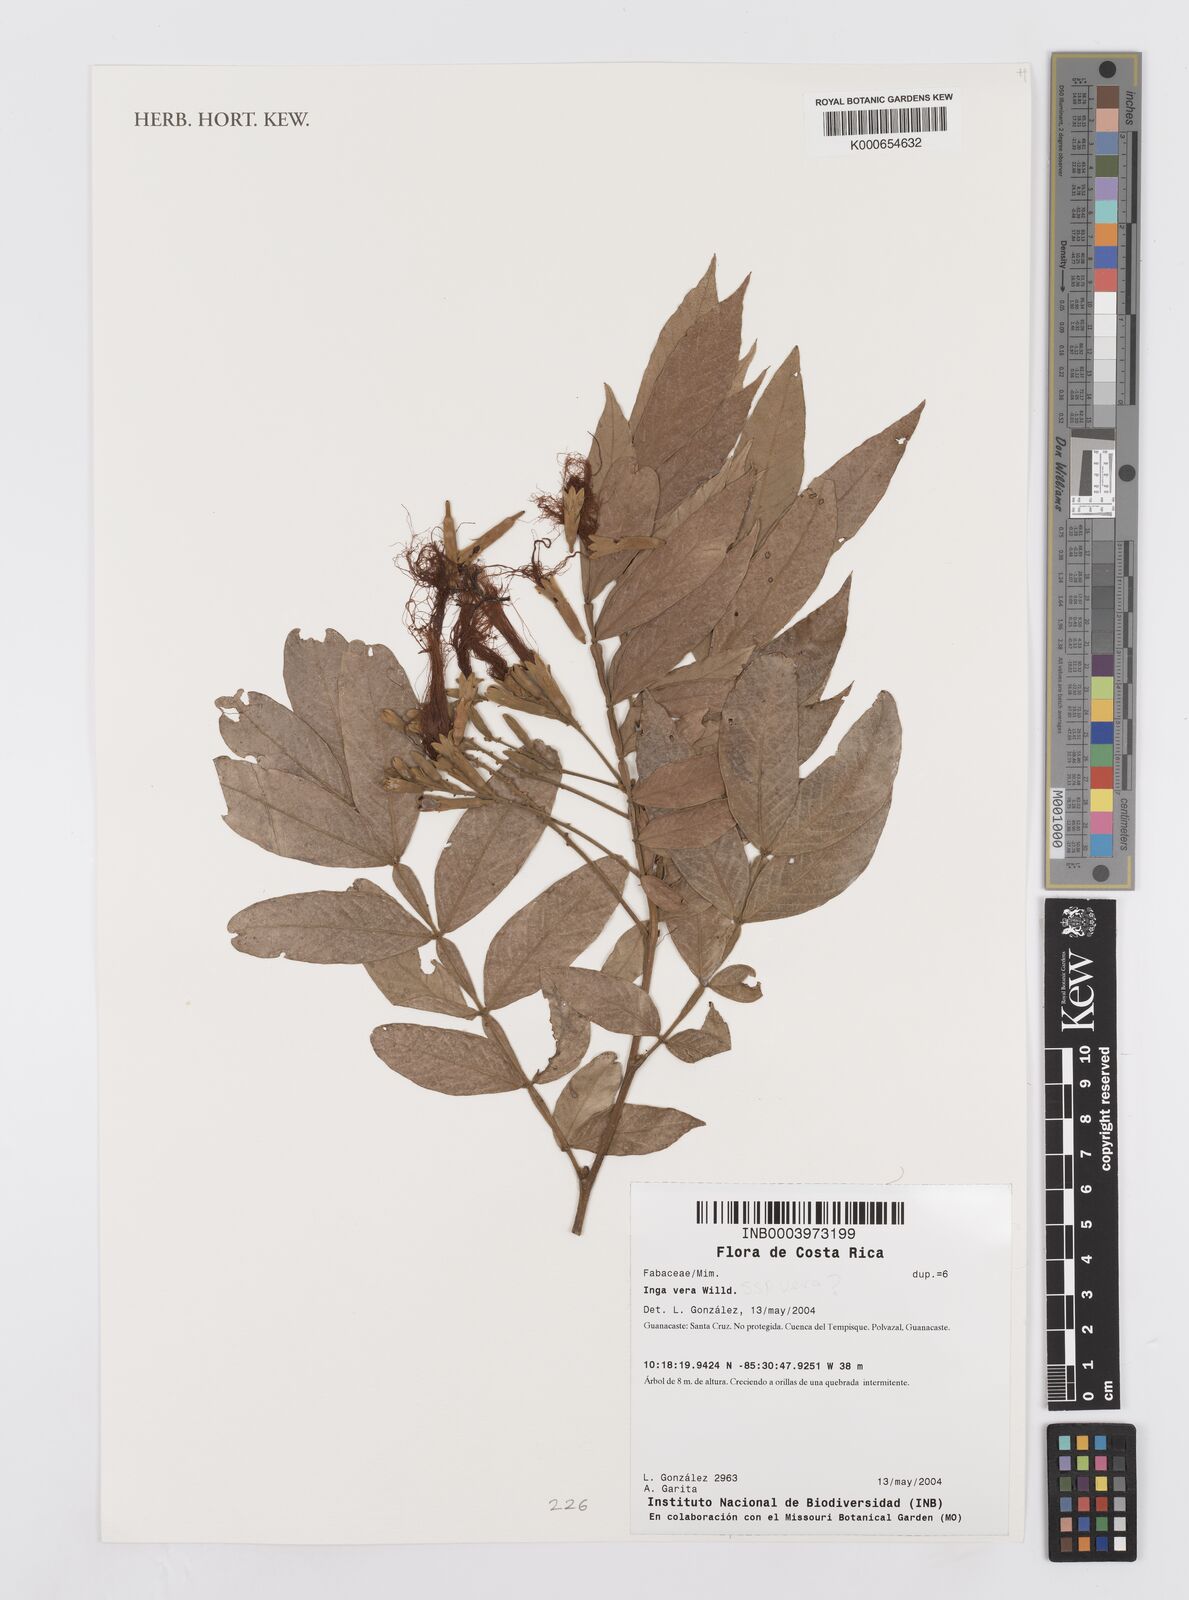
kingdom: Plantae
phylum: Tracheophyta
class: Magnoliopsida
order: Fabales
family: Fabaceae
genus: Inga
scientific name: Inga vera
